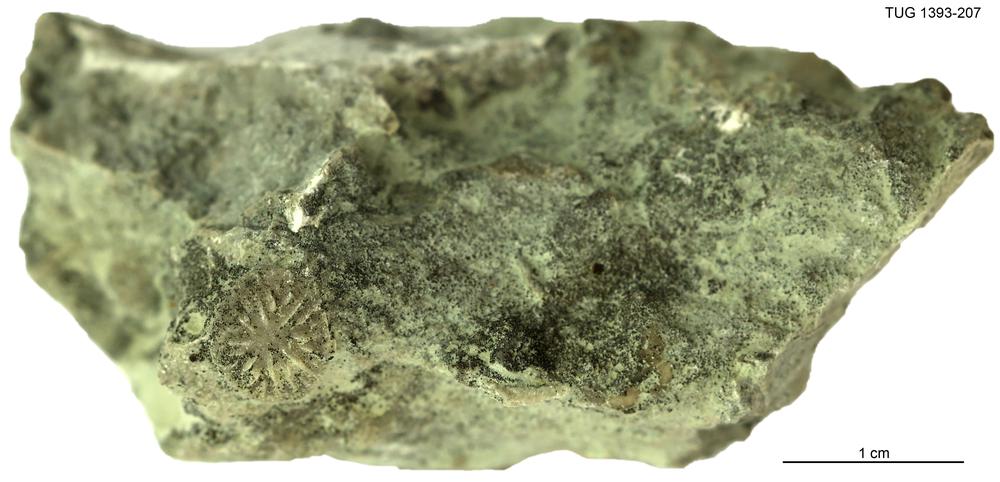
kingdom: Animalia
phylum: Echinodermata
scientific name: Echinodermata
